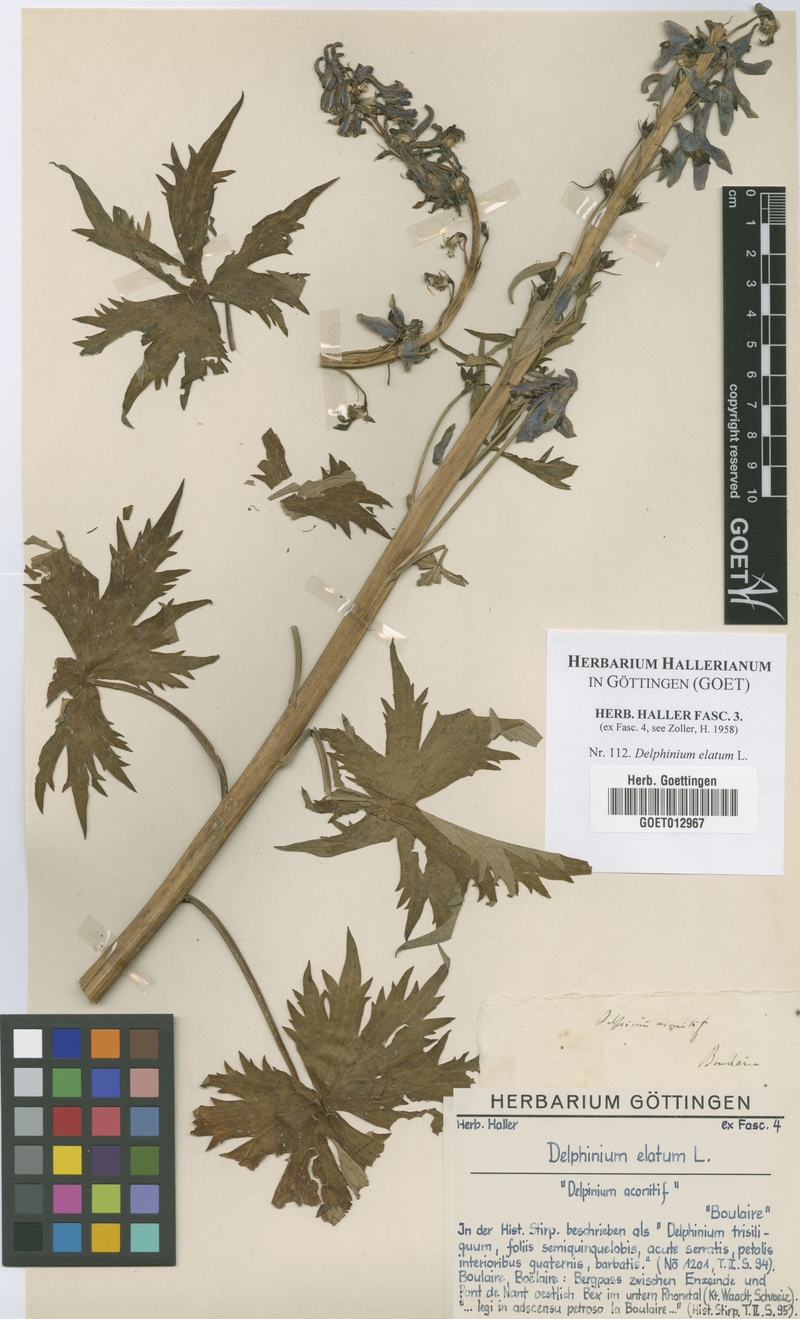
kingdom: Plantae
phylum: Tracheophyta
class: Magnoliopsida
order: Ranunculales
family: Ranunculaceae
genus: Delphinium
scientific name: Delphinium elatum
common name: Candle larkspur
